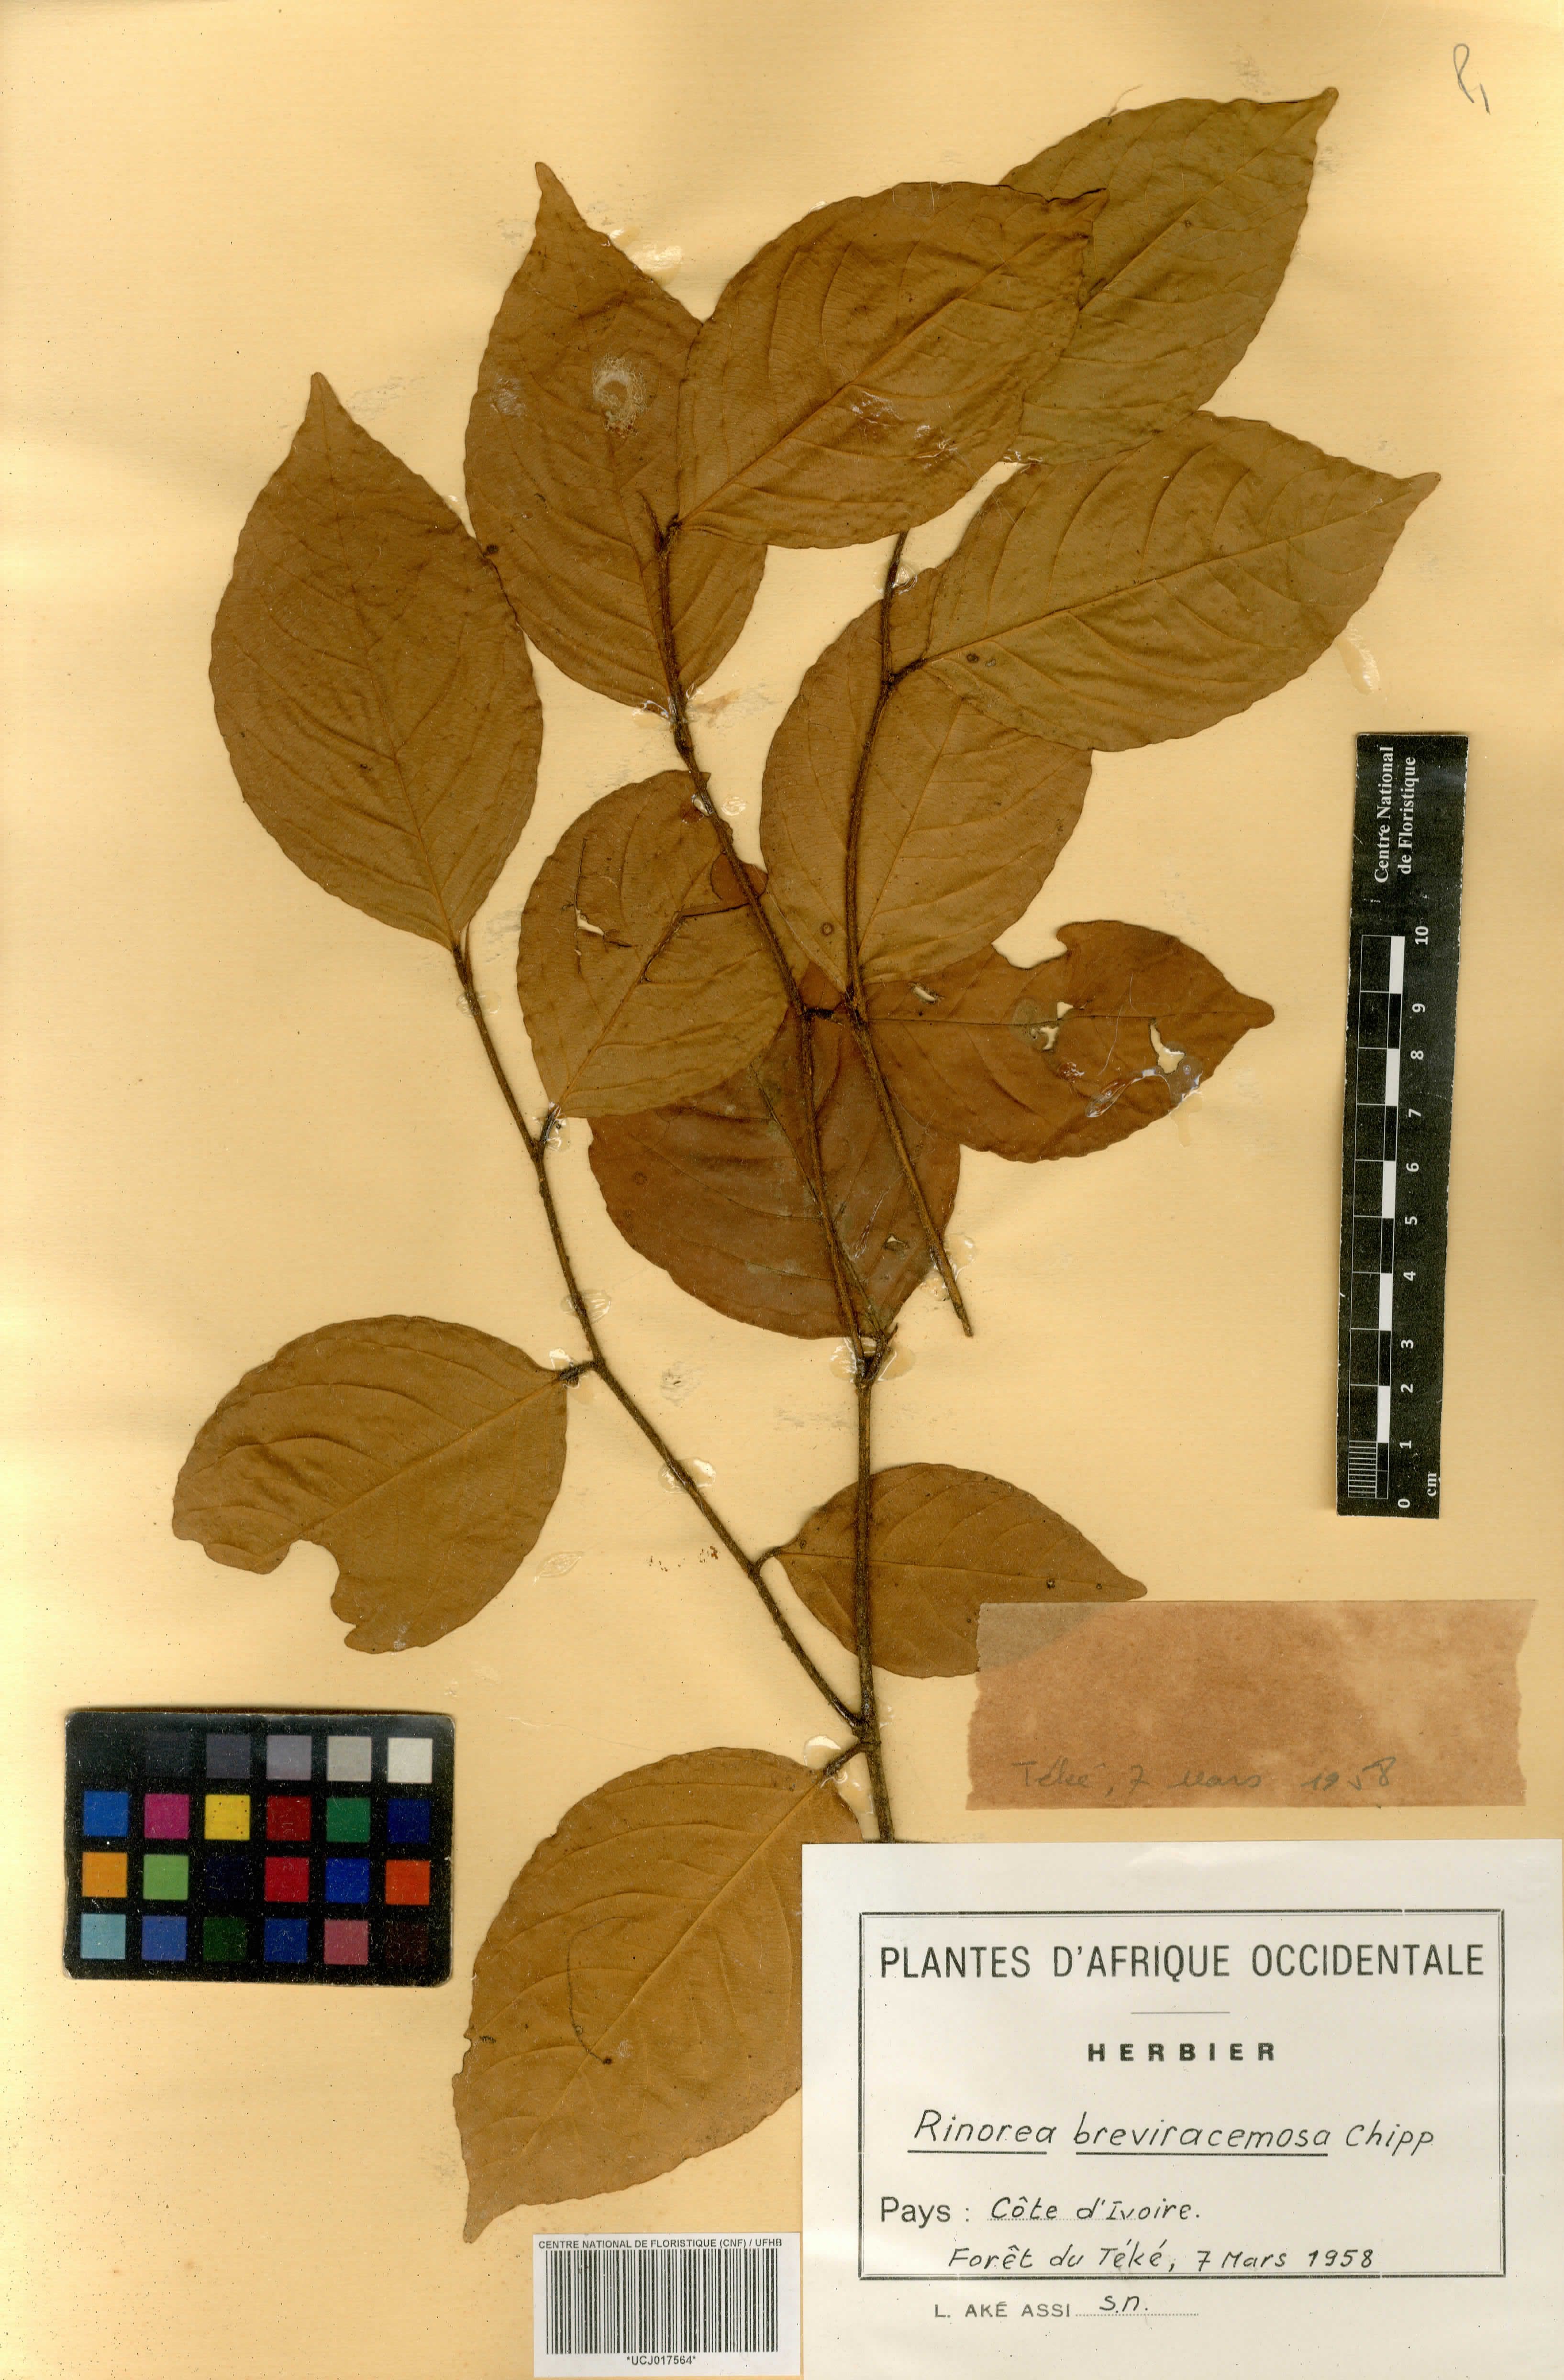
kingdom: Plantae
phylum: Tracheophyta
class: Magnoliopsida
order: Malpighiales
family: Violaceae
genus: Rinorea
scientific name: Rinorea breviracemosa
